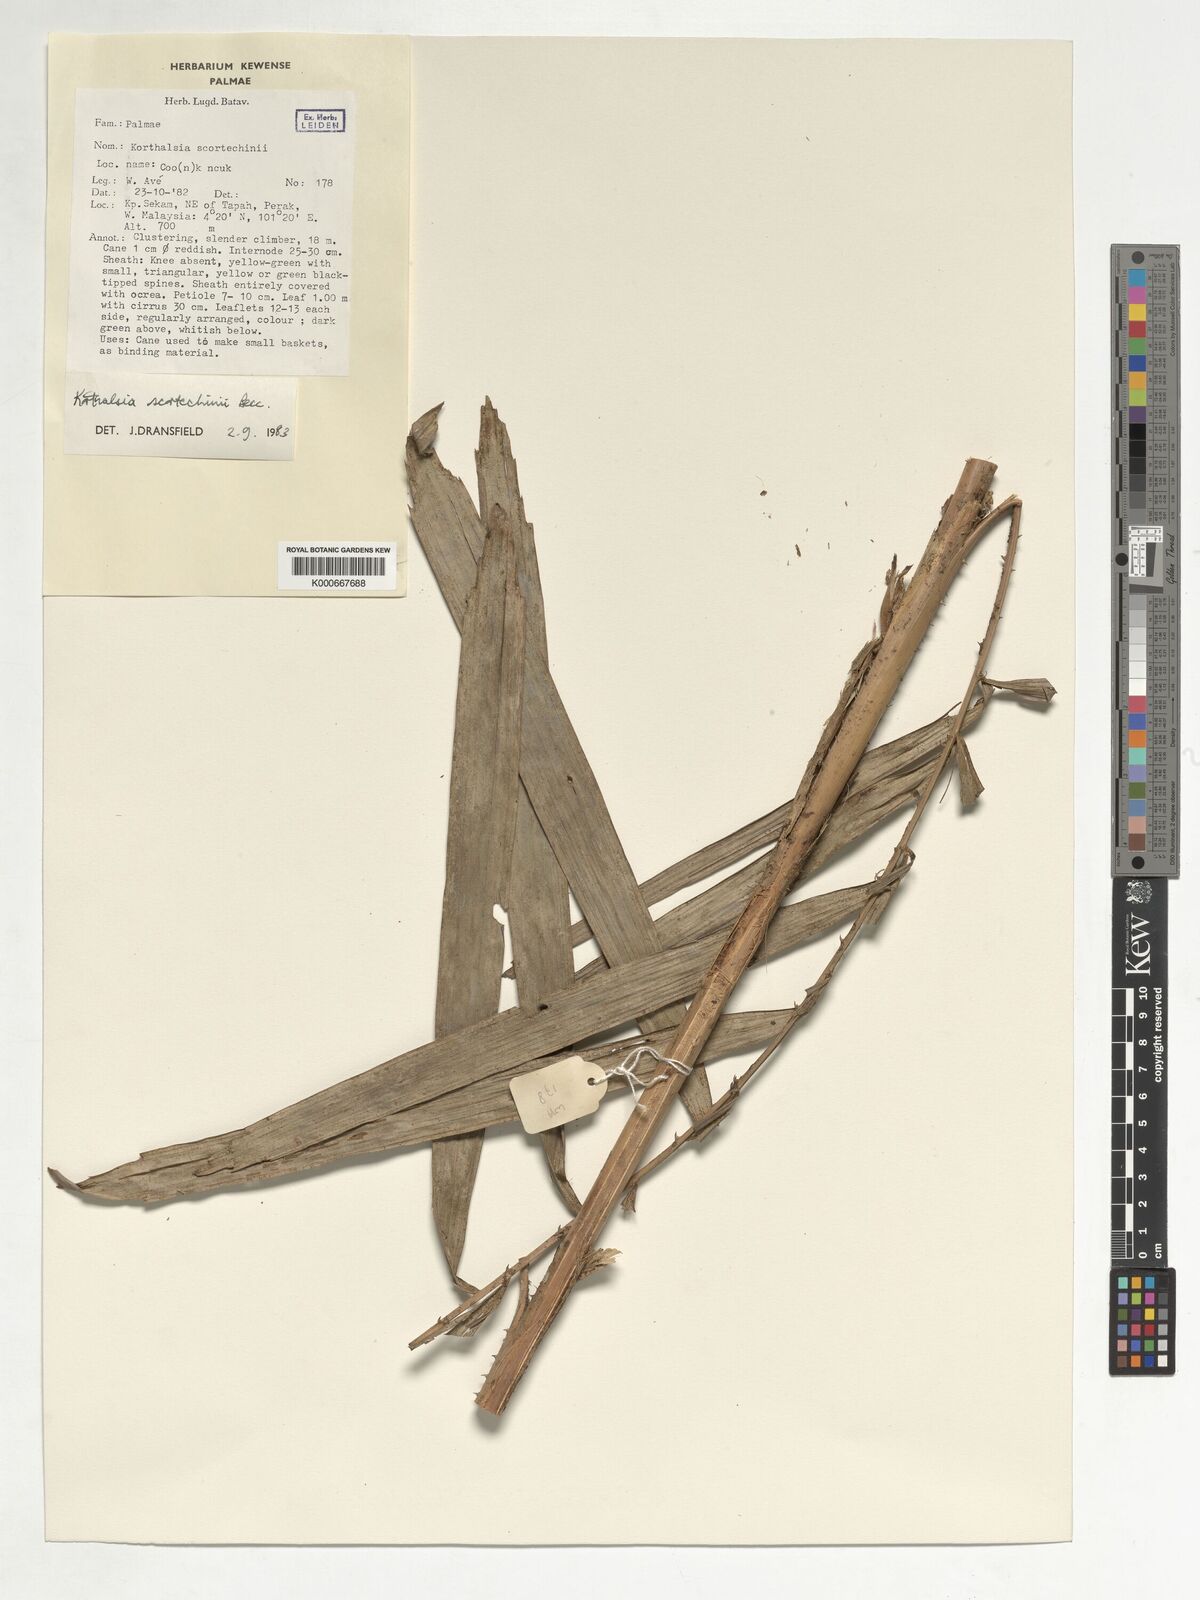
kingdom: Plantae
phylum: Tracheophyta
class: Liliopsida
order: Arecales
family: Arecaceae
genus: Korthalsia
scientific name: Korthalsia scortechinii
